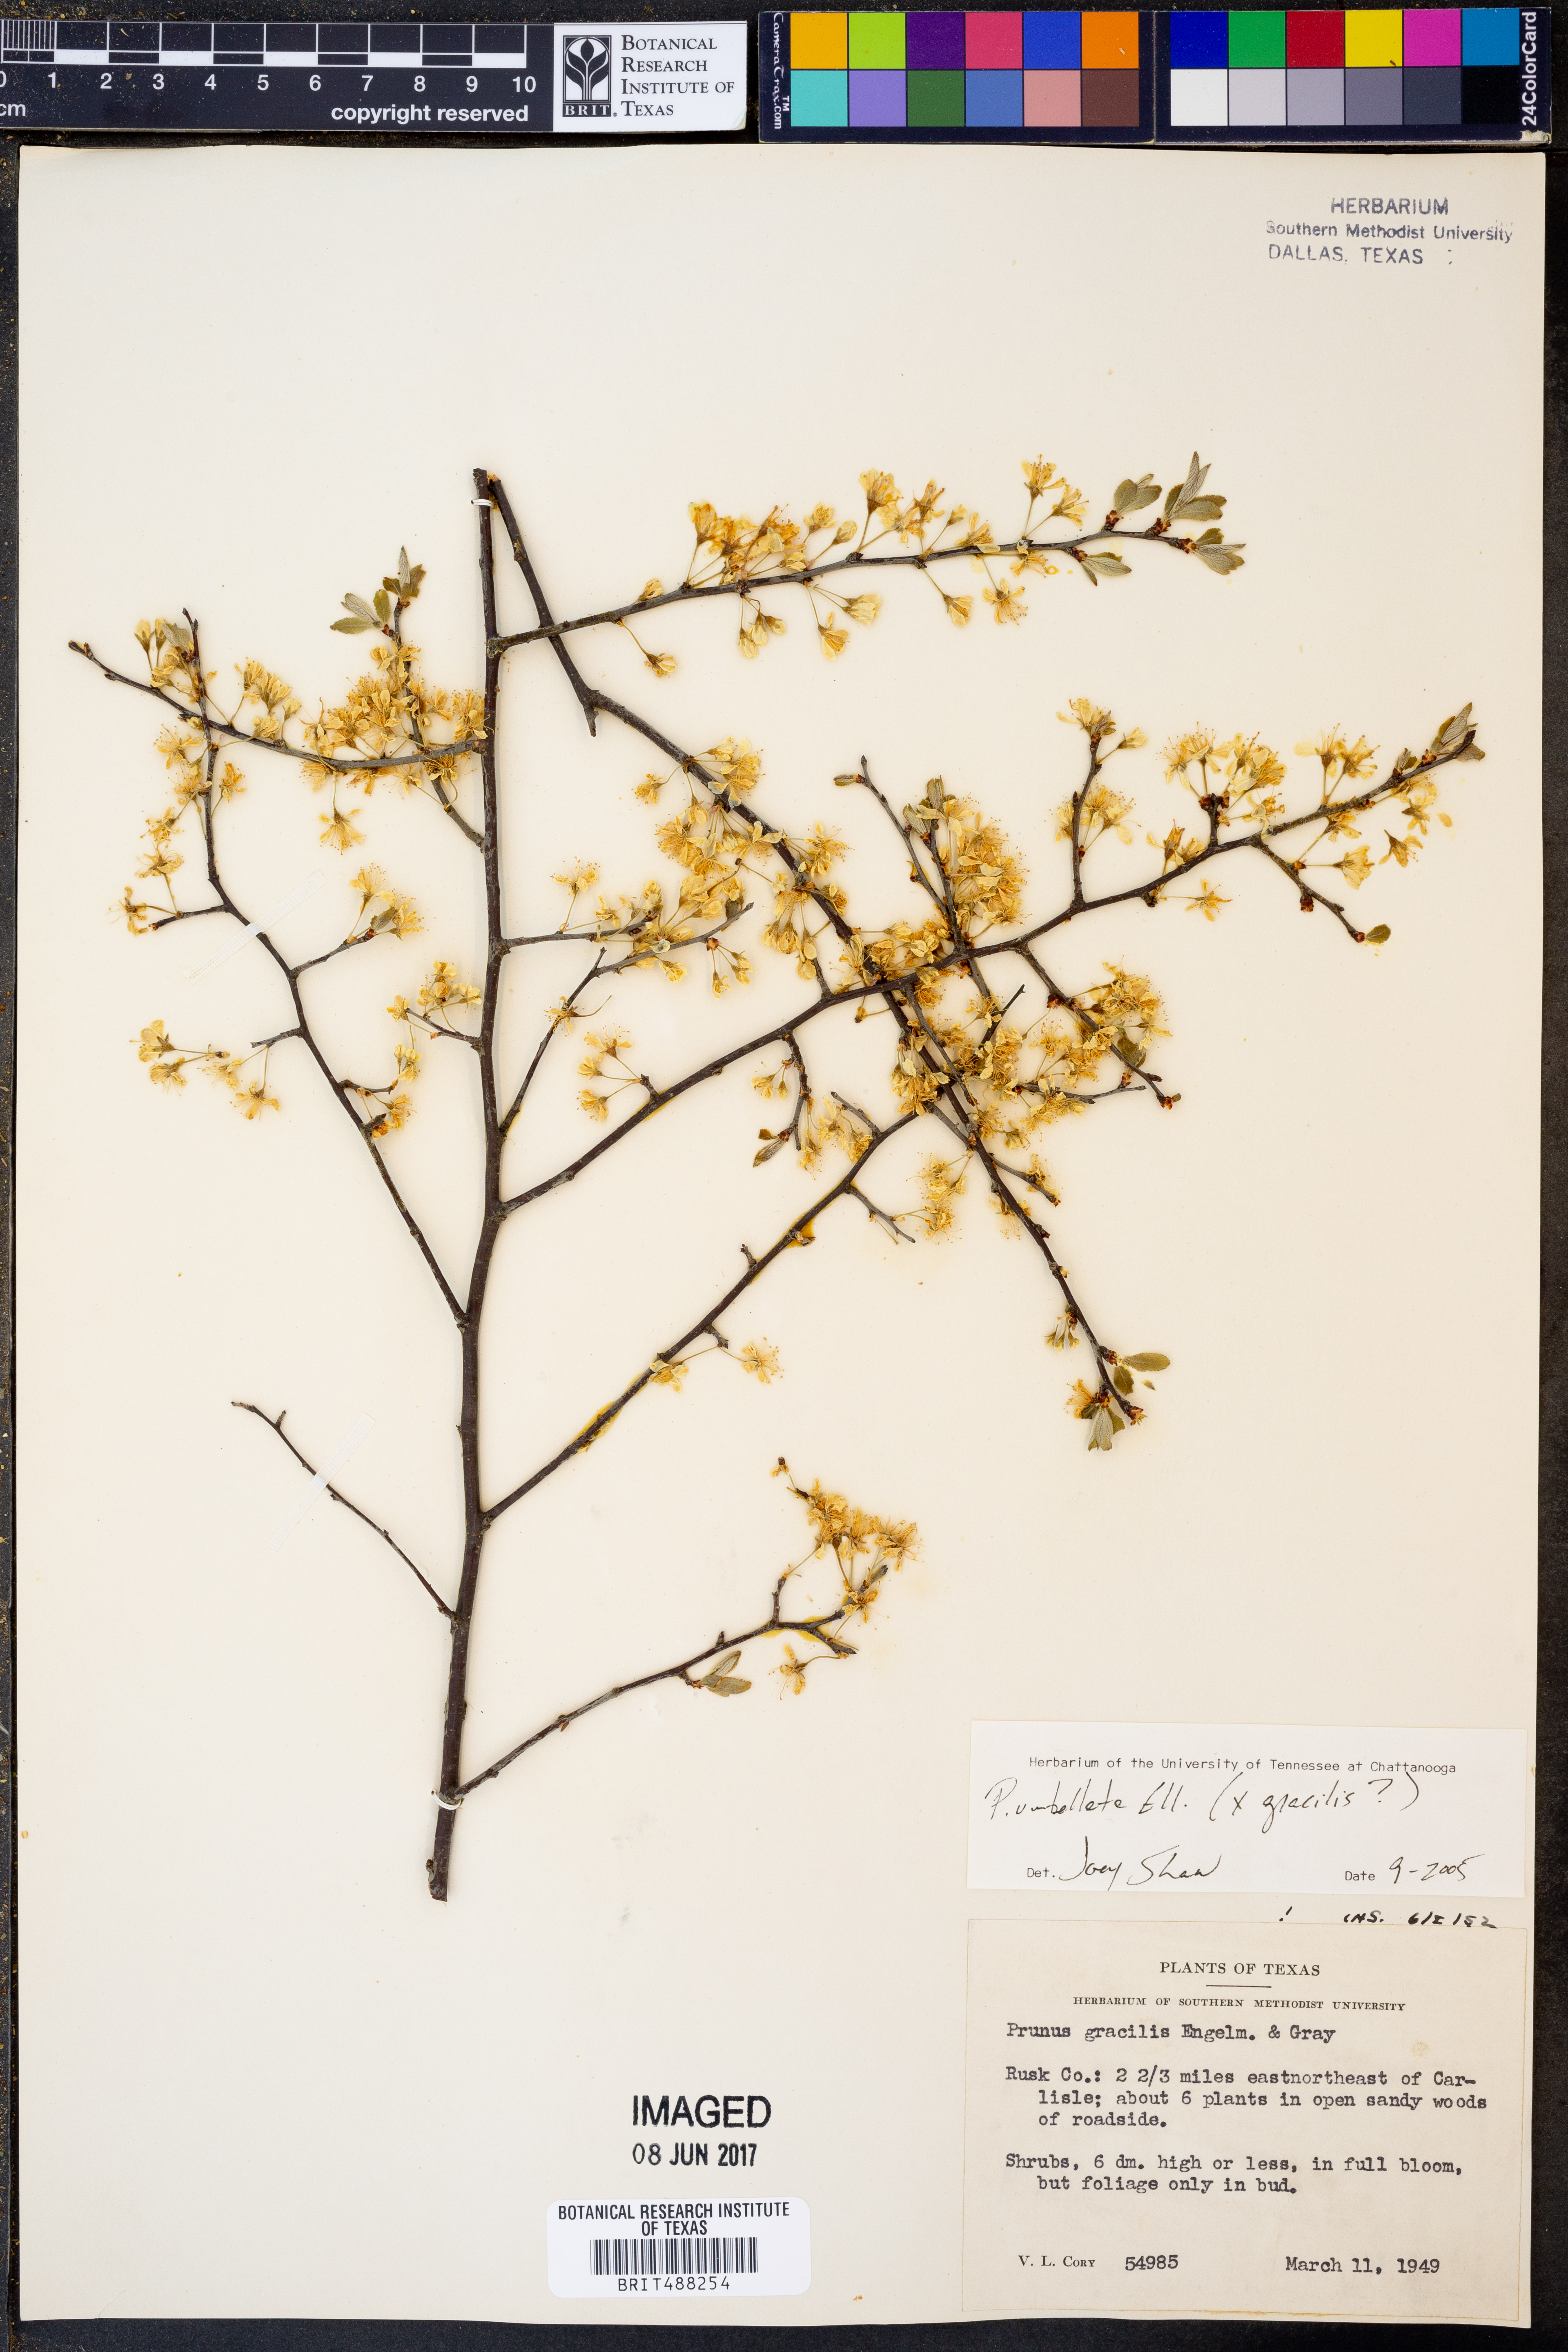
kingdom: Plantae
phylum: Tracheophyta
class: Magnoliopsida
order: Rosales
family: Rosaceae
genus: Prunus
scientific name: Prunus gracilis
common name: Oklahoma plum
